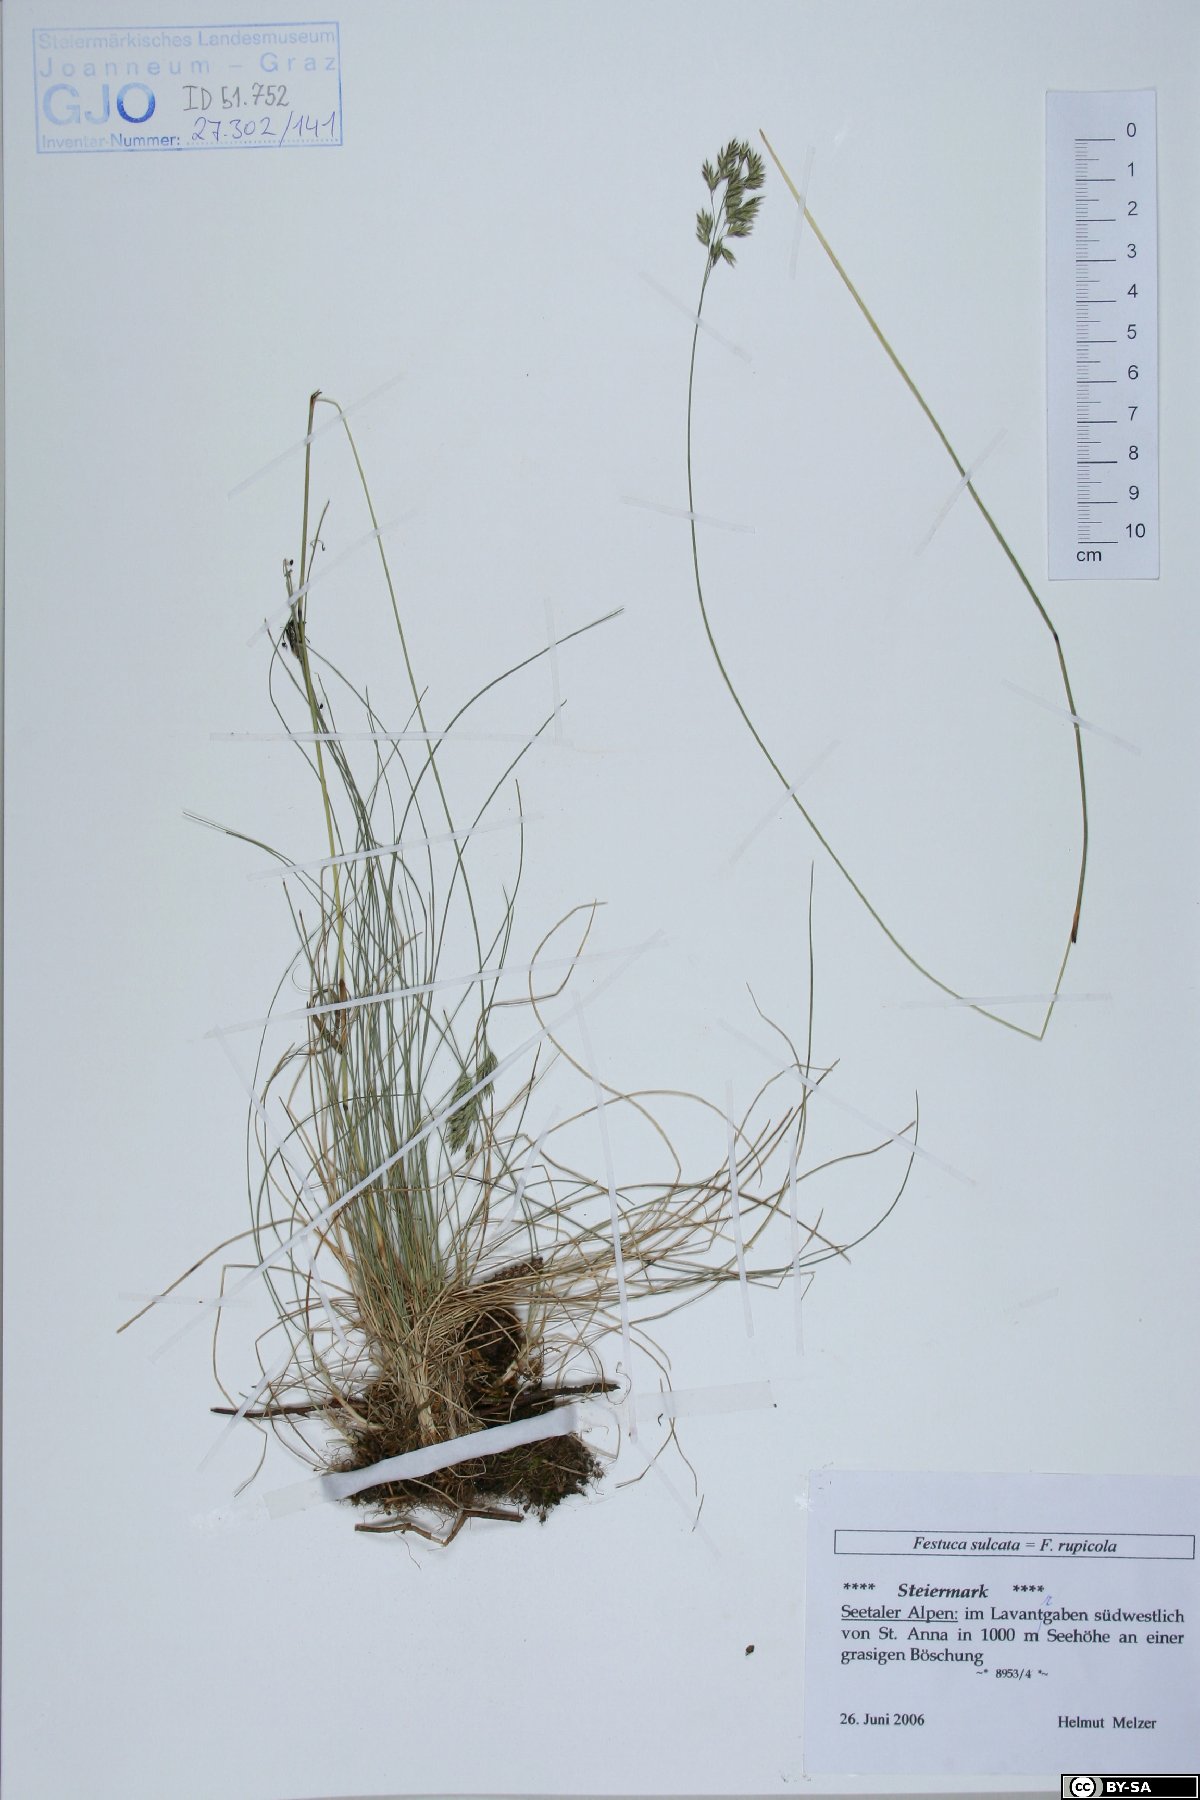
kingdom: Plantae
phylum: Tracheophyta
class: Liliopsida
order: Poales
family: Poaceae
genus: Festuca
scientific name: Festuca rupicola
